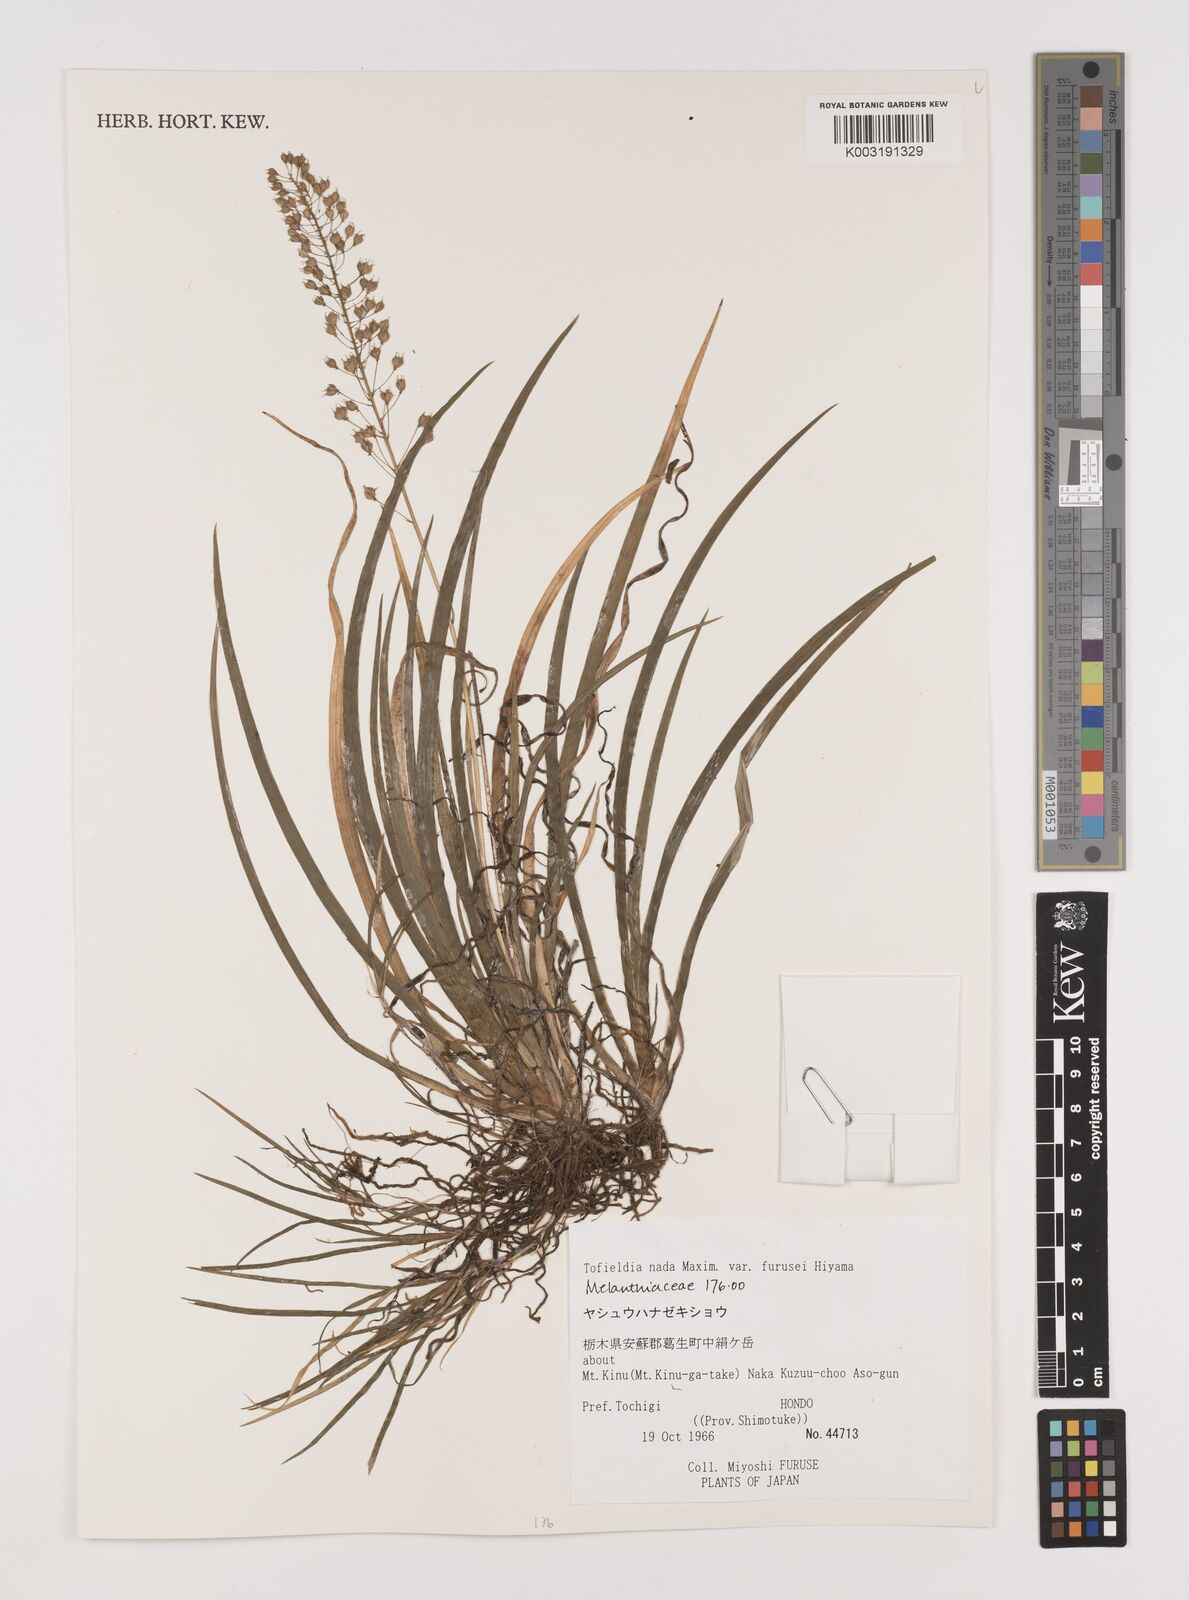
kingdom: Plantae
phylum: Tracheophyta
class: Liliopsida
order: Alismatales
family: Tofieldiaceae
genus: Tofieldia
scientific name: Tofieldia furusei
